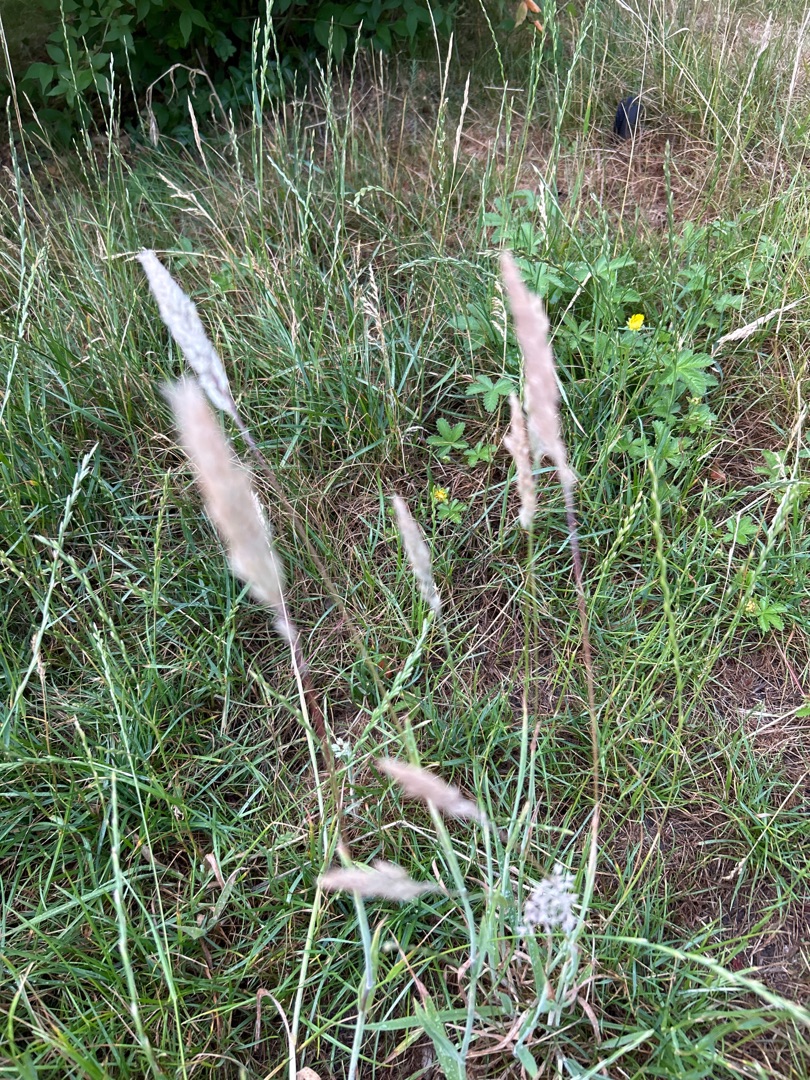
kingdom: Plantae
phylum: Tracheophyta
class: Liliopsida
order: Poales
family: Poaceae
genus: Holcus
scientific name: Holcus lanatus
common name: Fløjlsgræs
